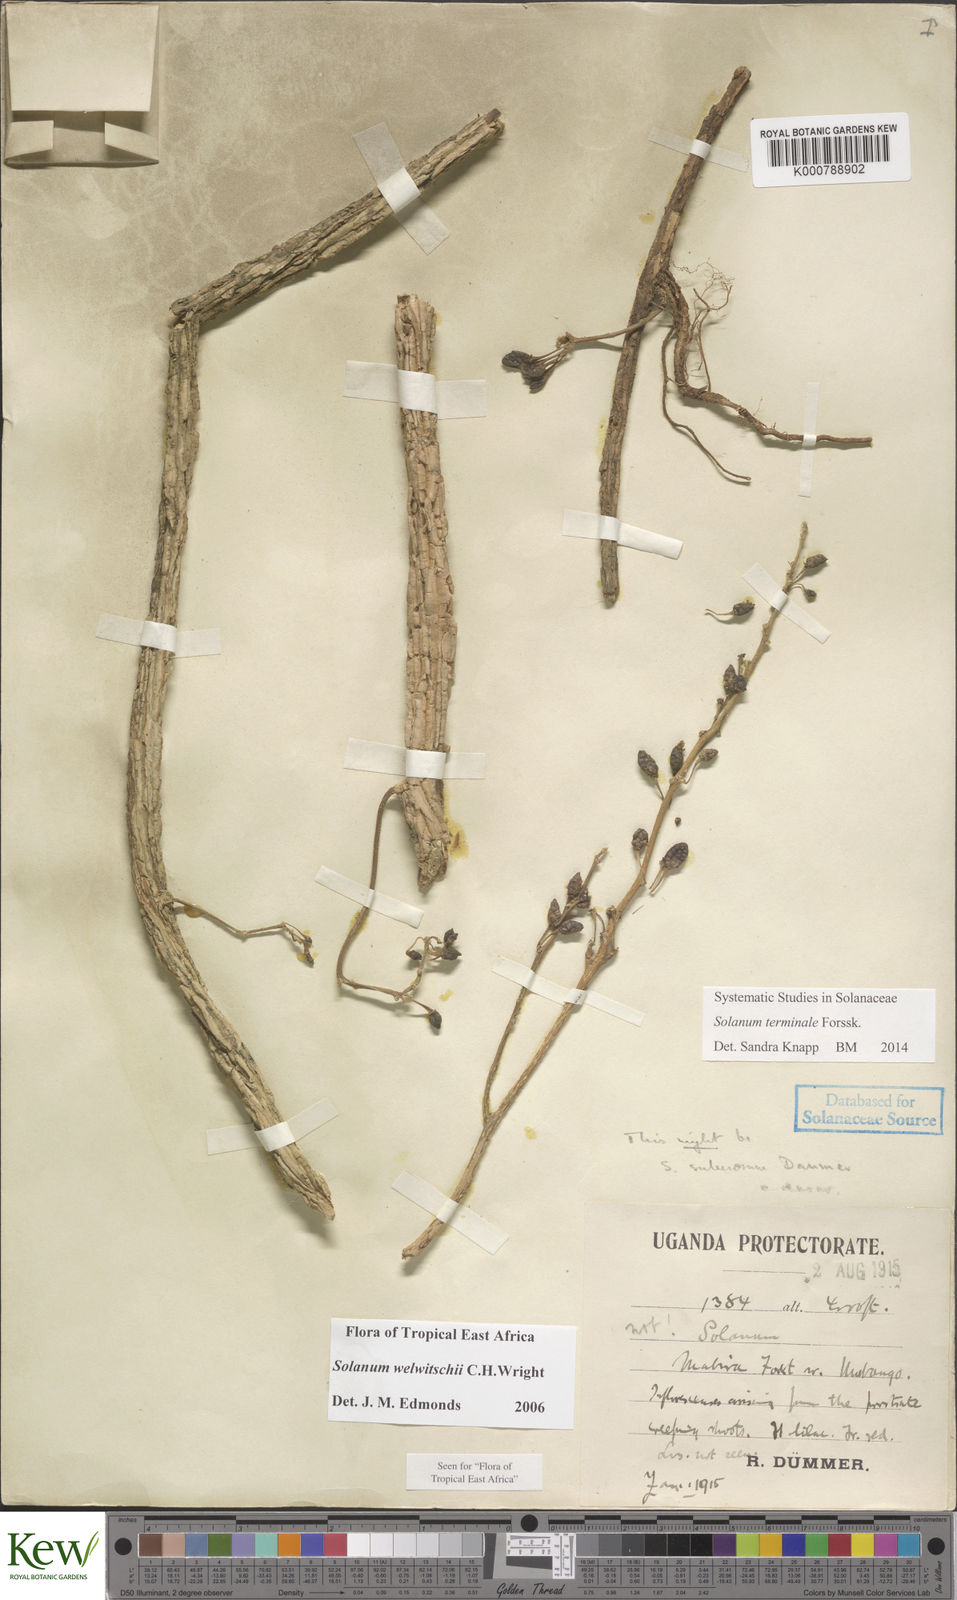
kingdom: Plantae
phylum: Tracheophyta
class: Magnoliopsida
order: Solanales
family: Solanaceae
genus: Solanum
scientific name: Solanum terminale
